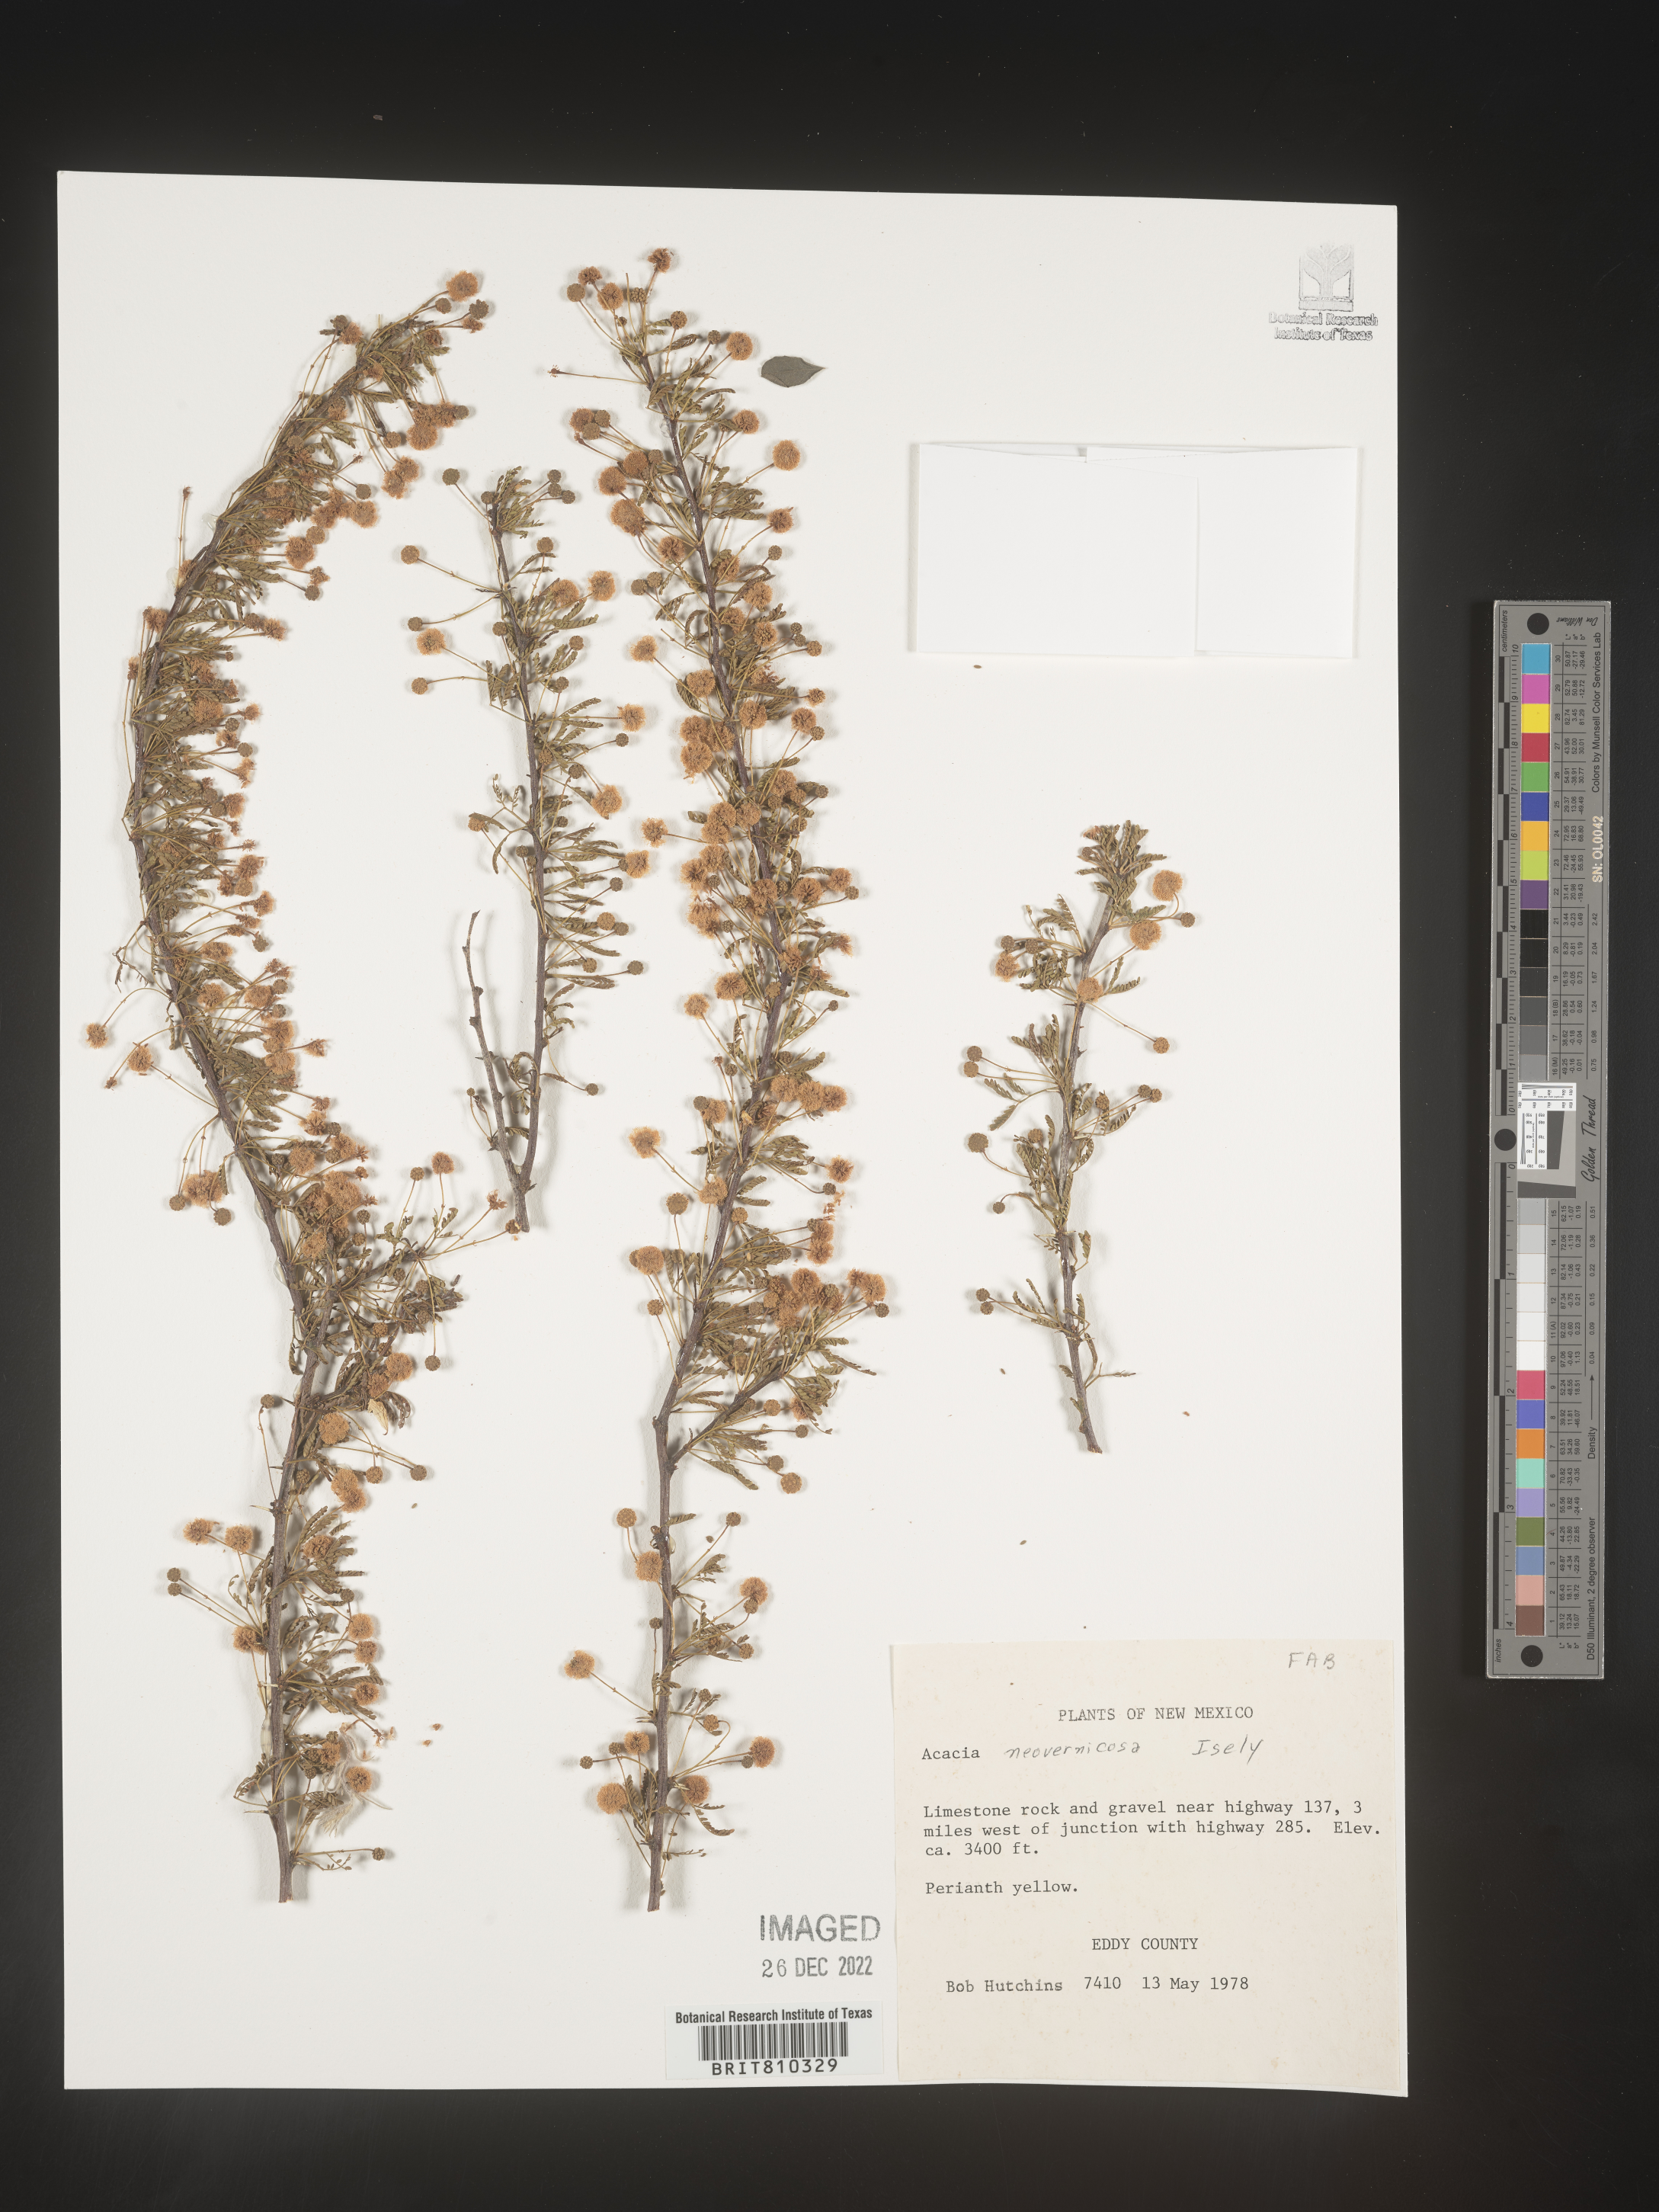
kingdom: Plantae
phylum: Tracheophyta
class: Magnoliopsida
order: Fabales
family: Fabaceae
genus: Acacia
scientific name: Acacia
